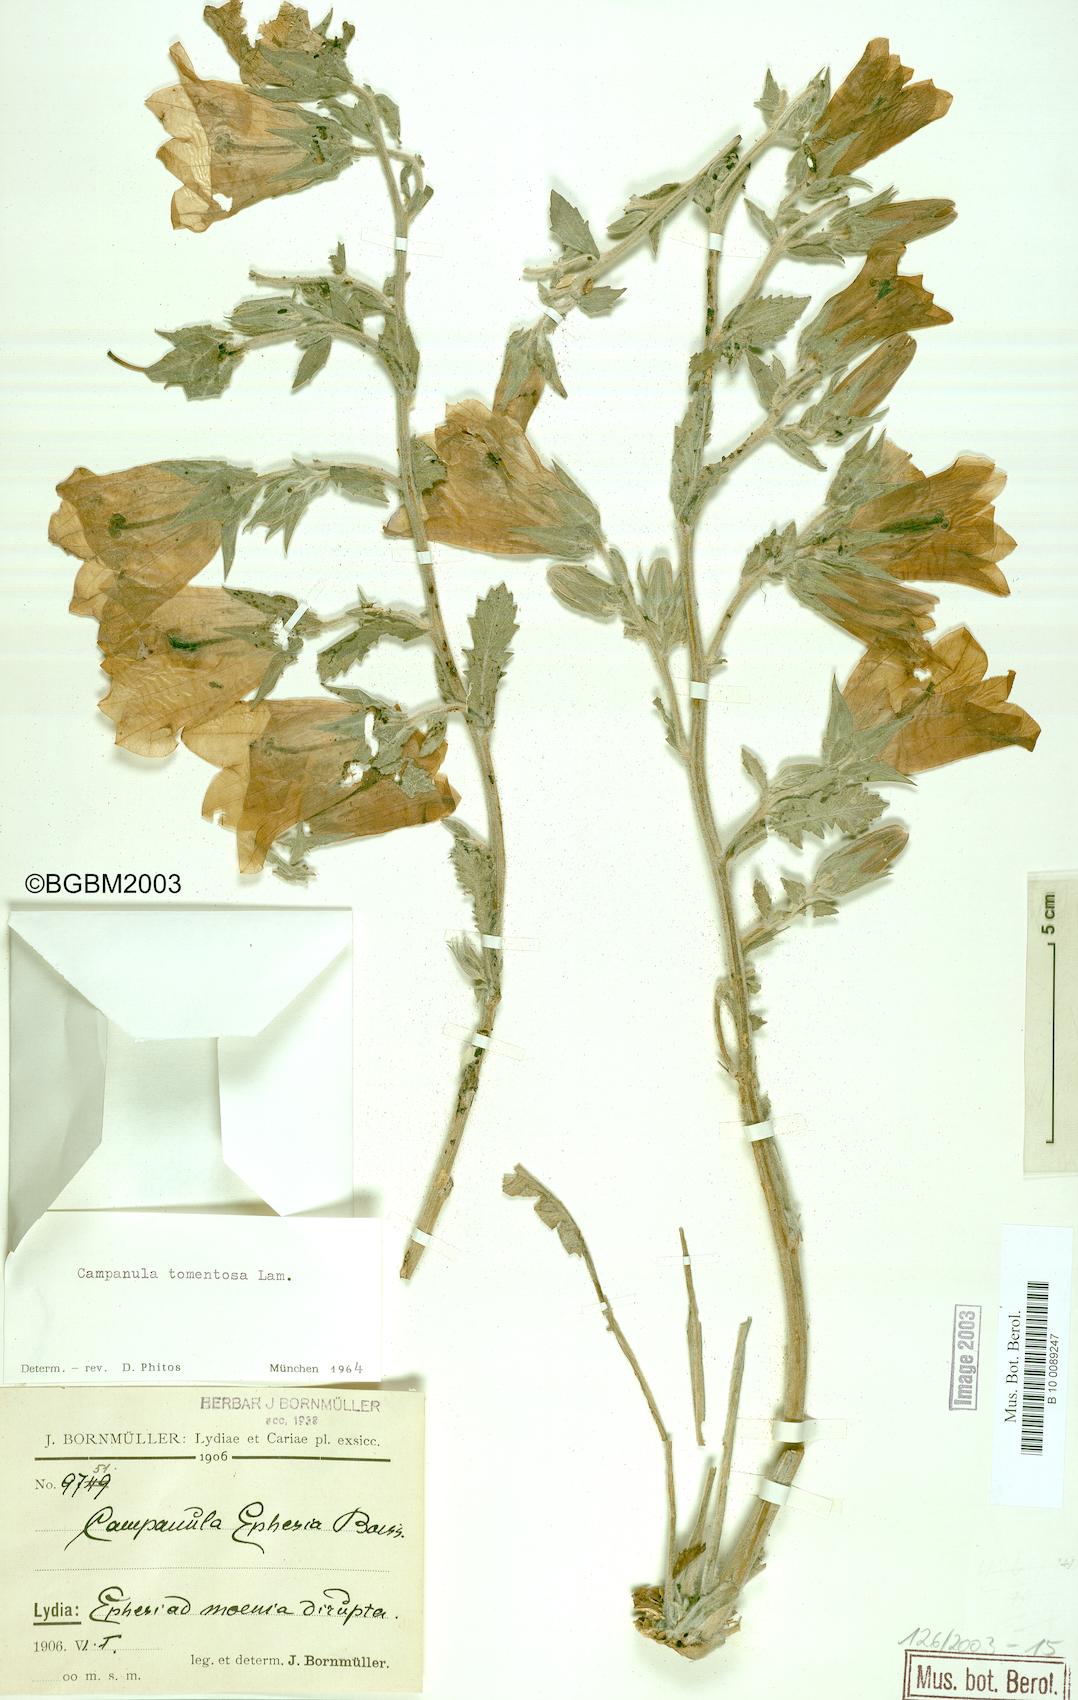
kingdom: Plantae
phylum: Tracheophyta
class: Magnoliopsida
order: Asterales
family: Campanulaceae
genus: Campanula
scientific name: Campanula tomentosa
